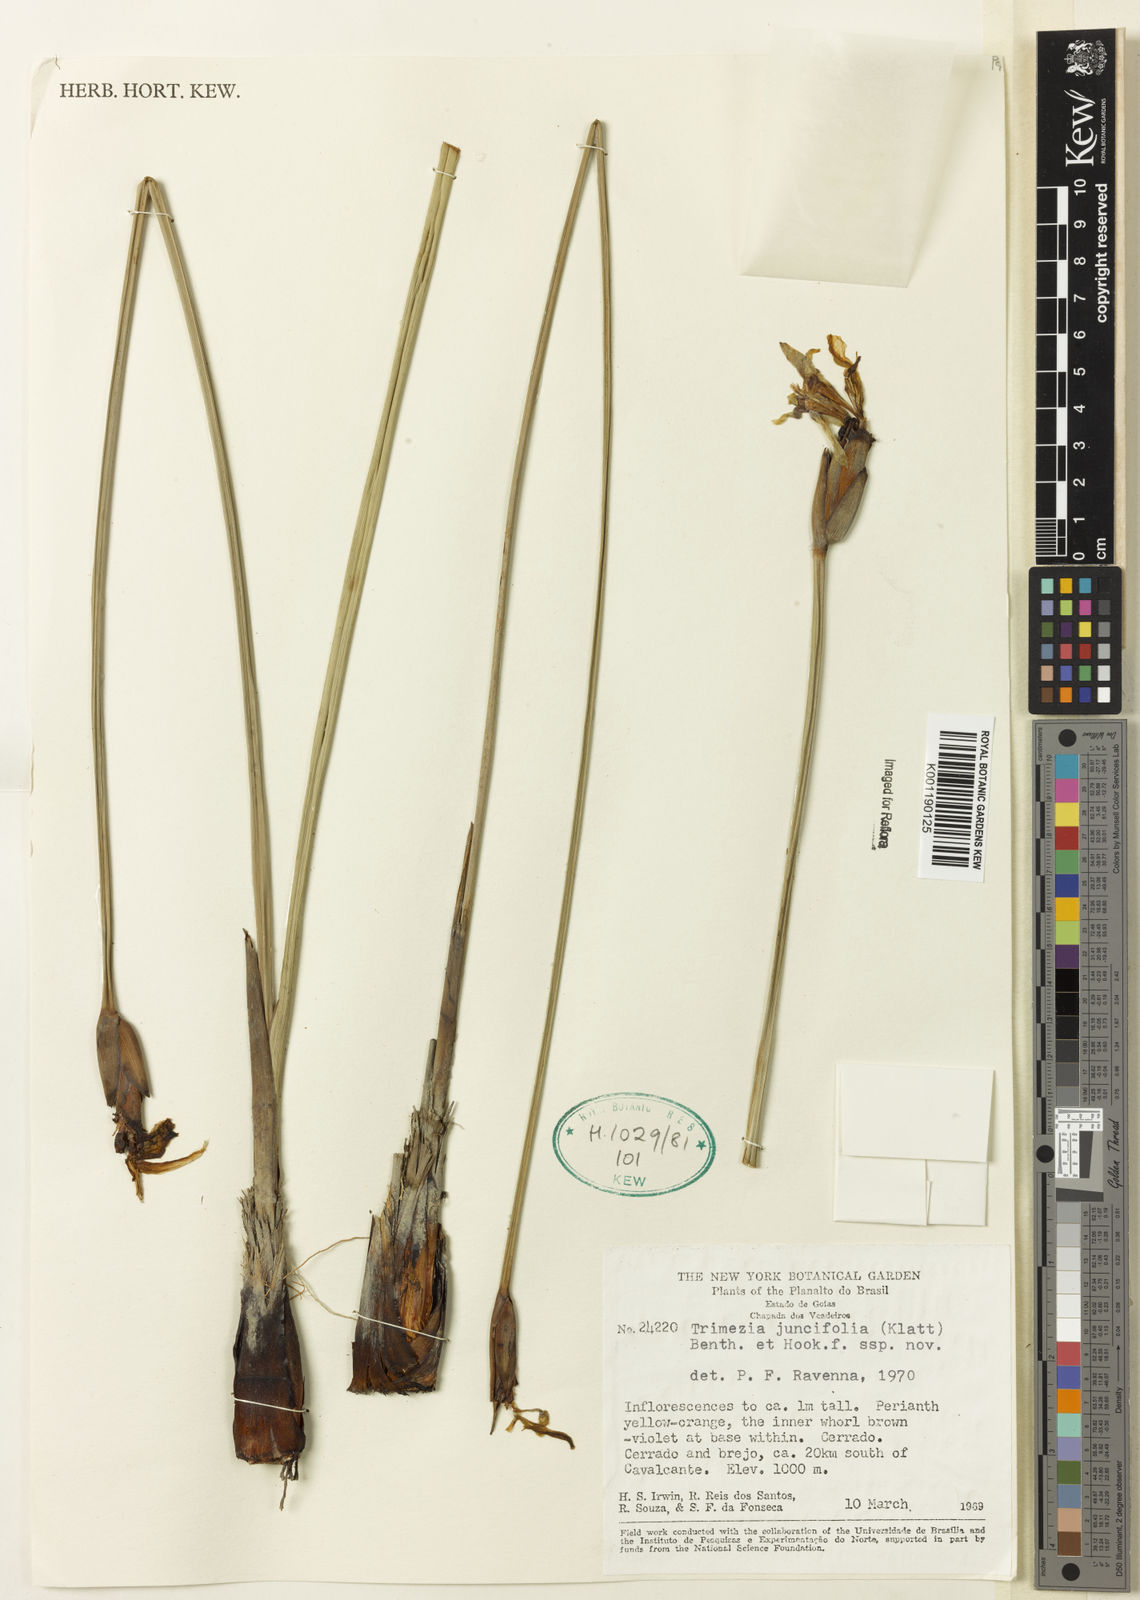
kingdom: Plantae
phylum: Tracheophyta
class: Liliopsida
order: Asparagales
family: Iridaceae
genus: Trimezia
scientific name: Trimezia juncifolia
